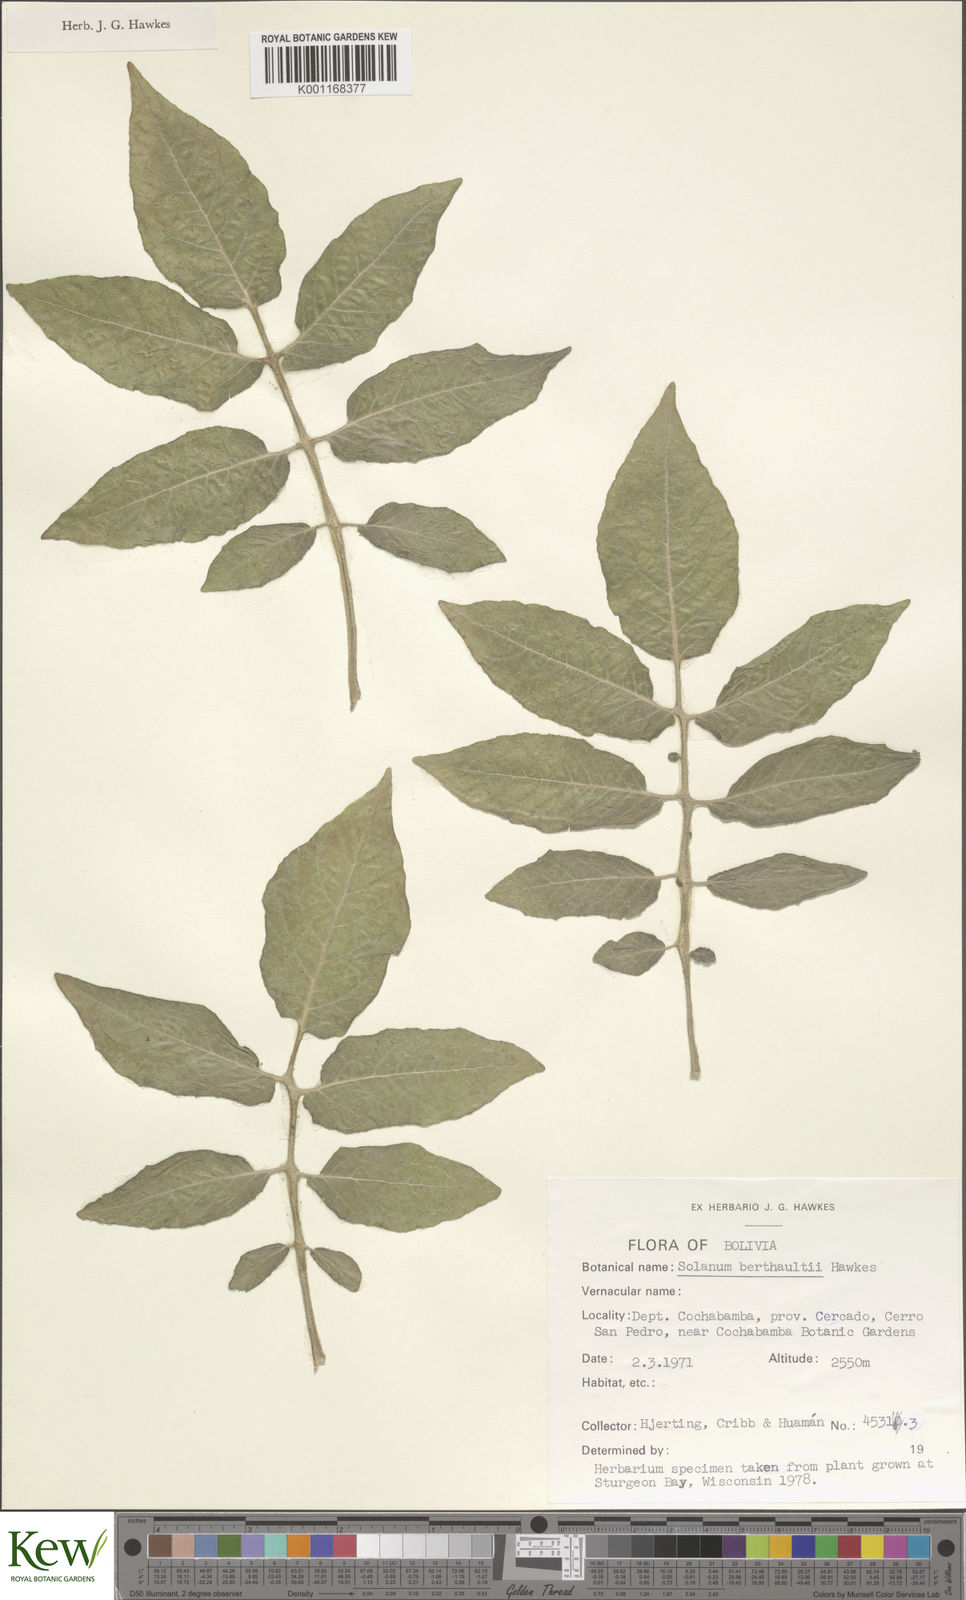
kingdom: Plantae
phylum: Tracheophyta
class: Magnoliopsida
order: Solanales
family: Solanaceae
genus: Solanum
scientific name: Solanum berthaultii
